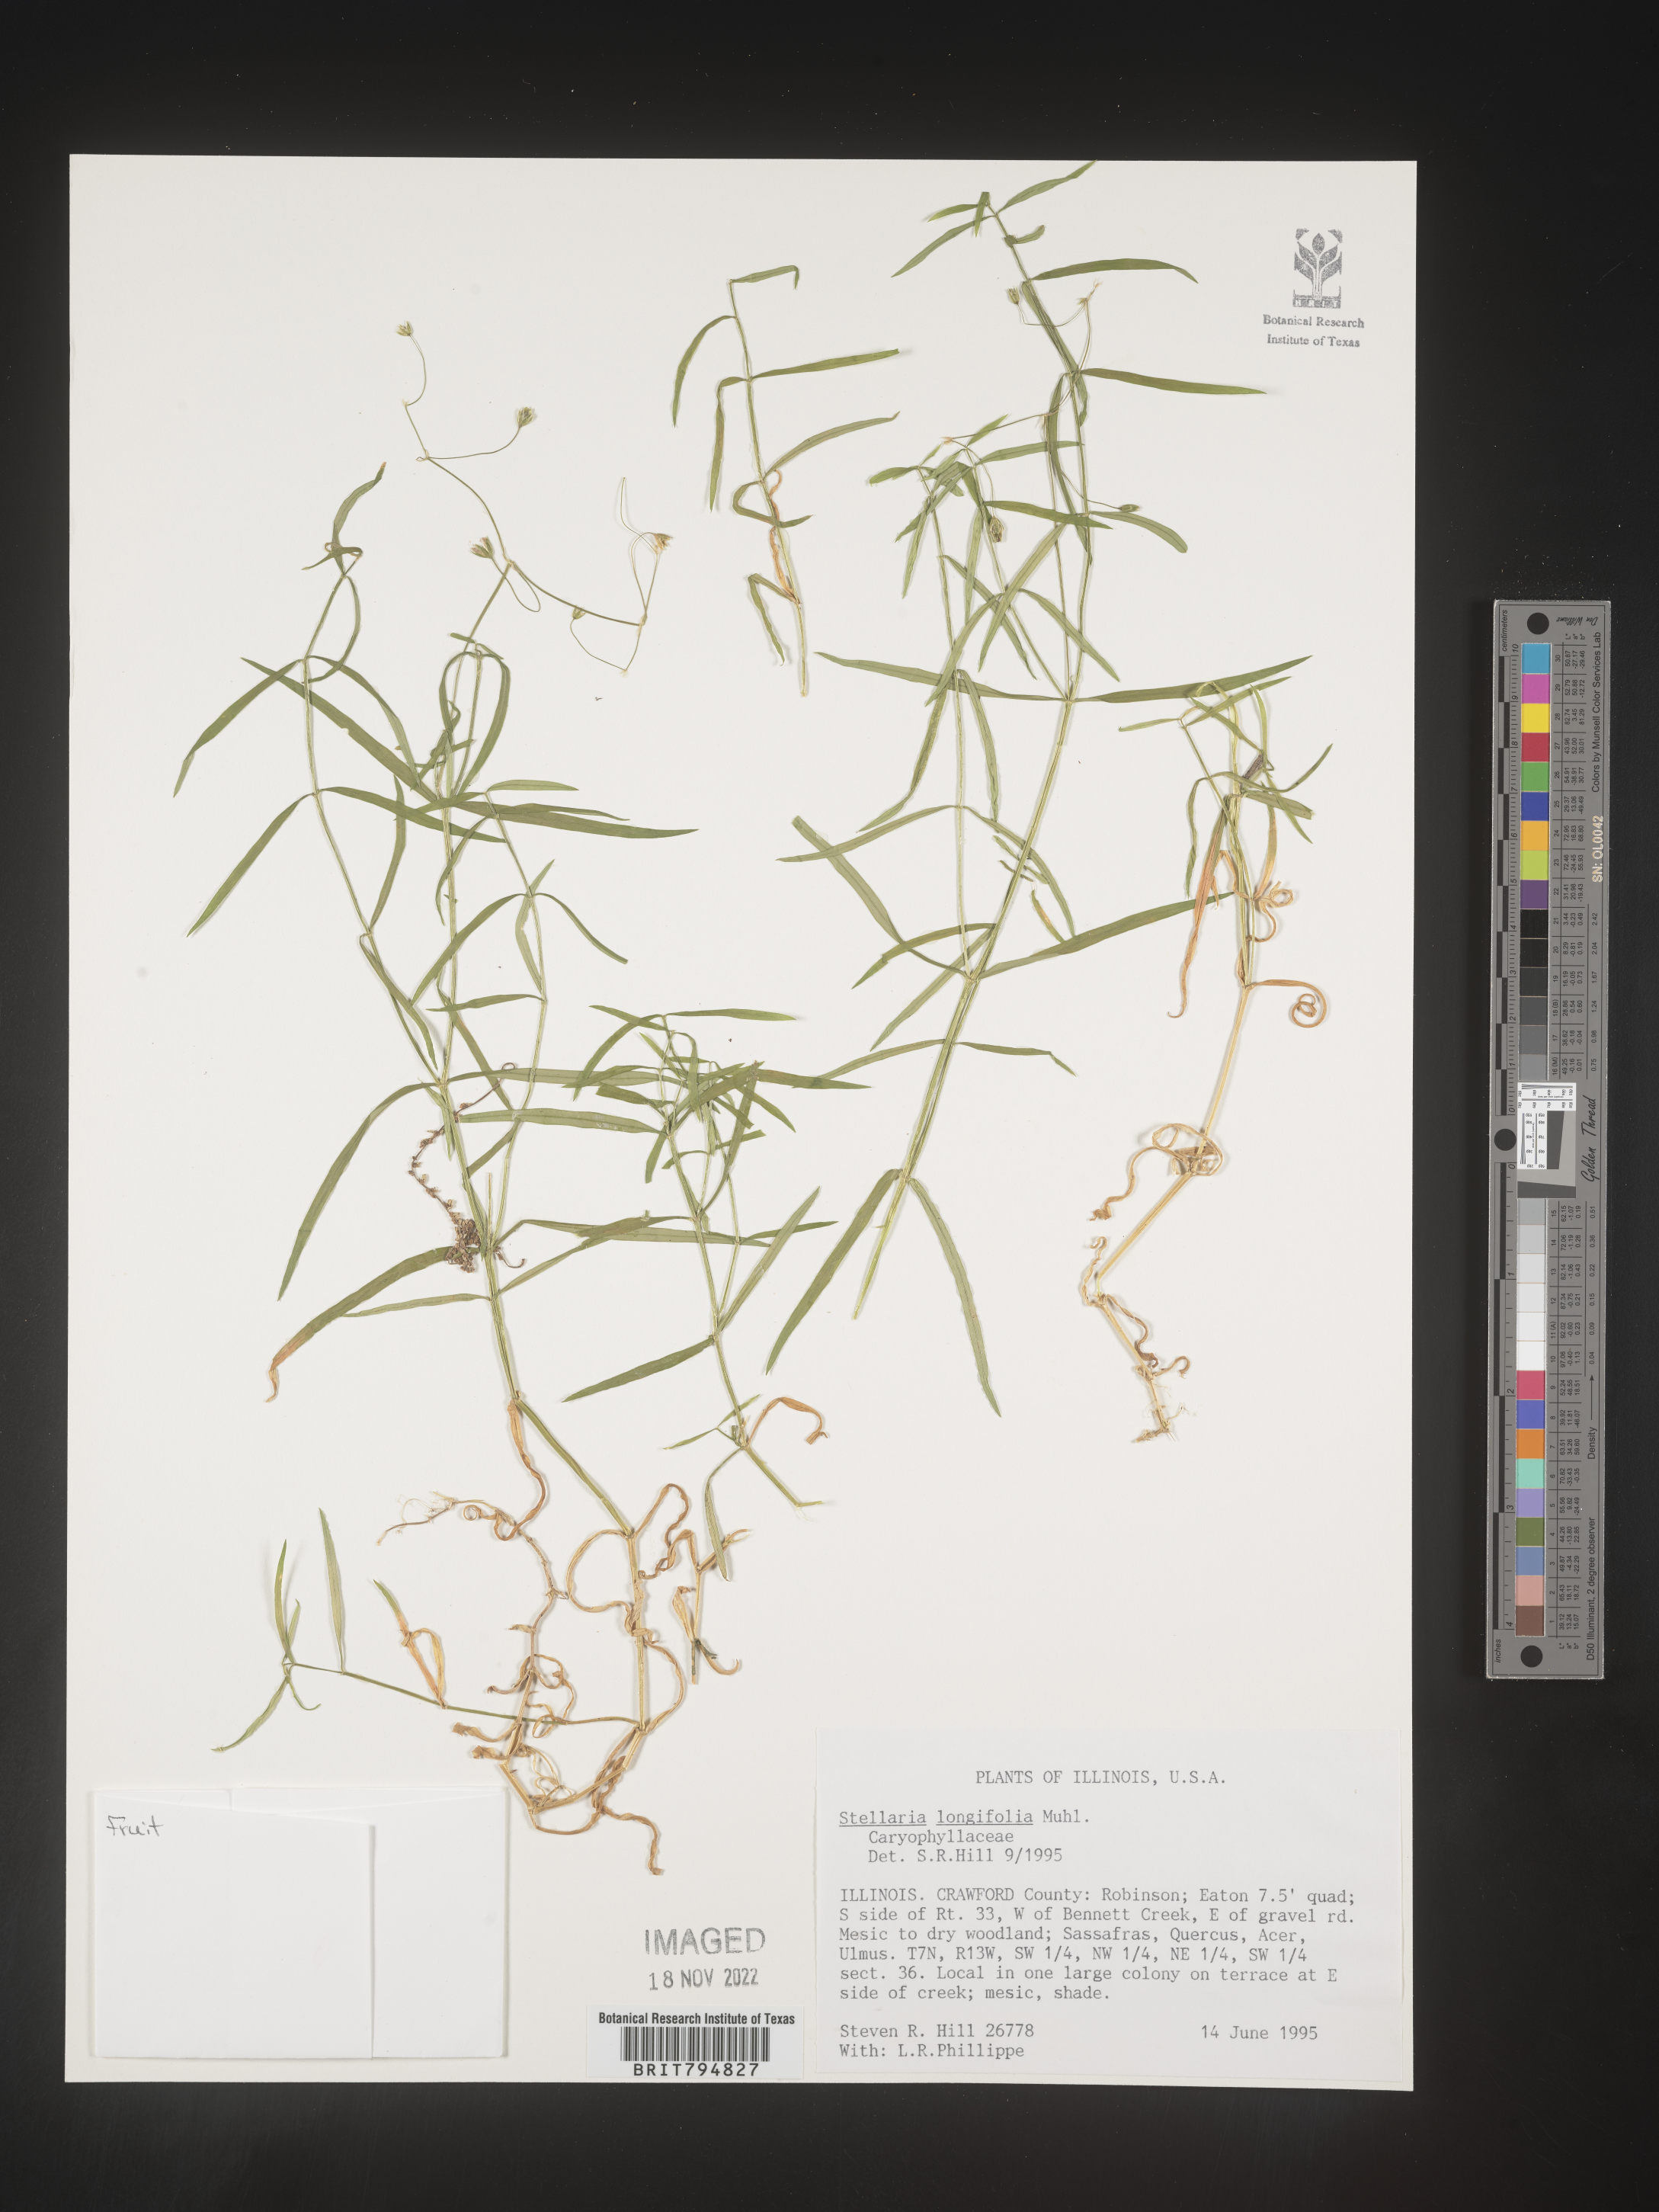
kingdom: Plantae
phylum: Tracheophyta
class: Magnoliopsida
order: Caryophyllales
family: Caryophyllaceae
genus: Stellaria
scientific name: Stellaria longifolia
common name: Long-leaved chickweed
